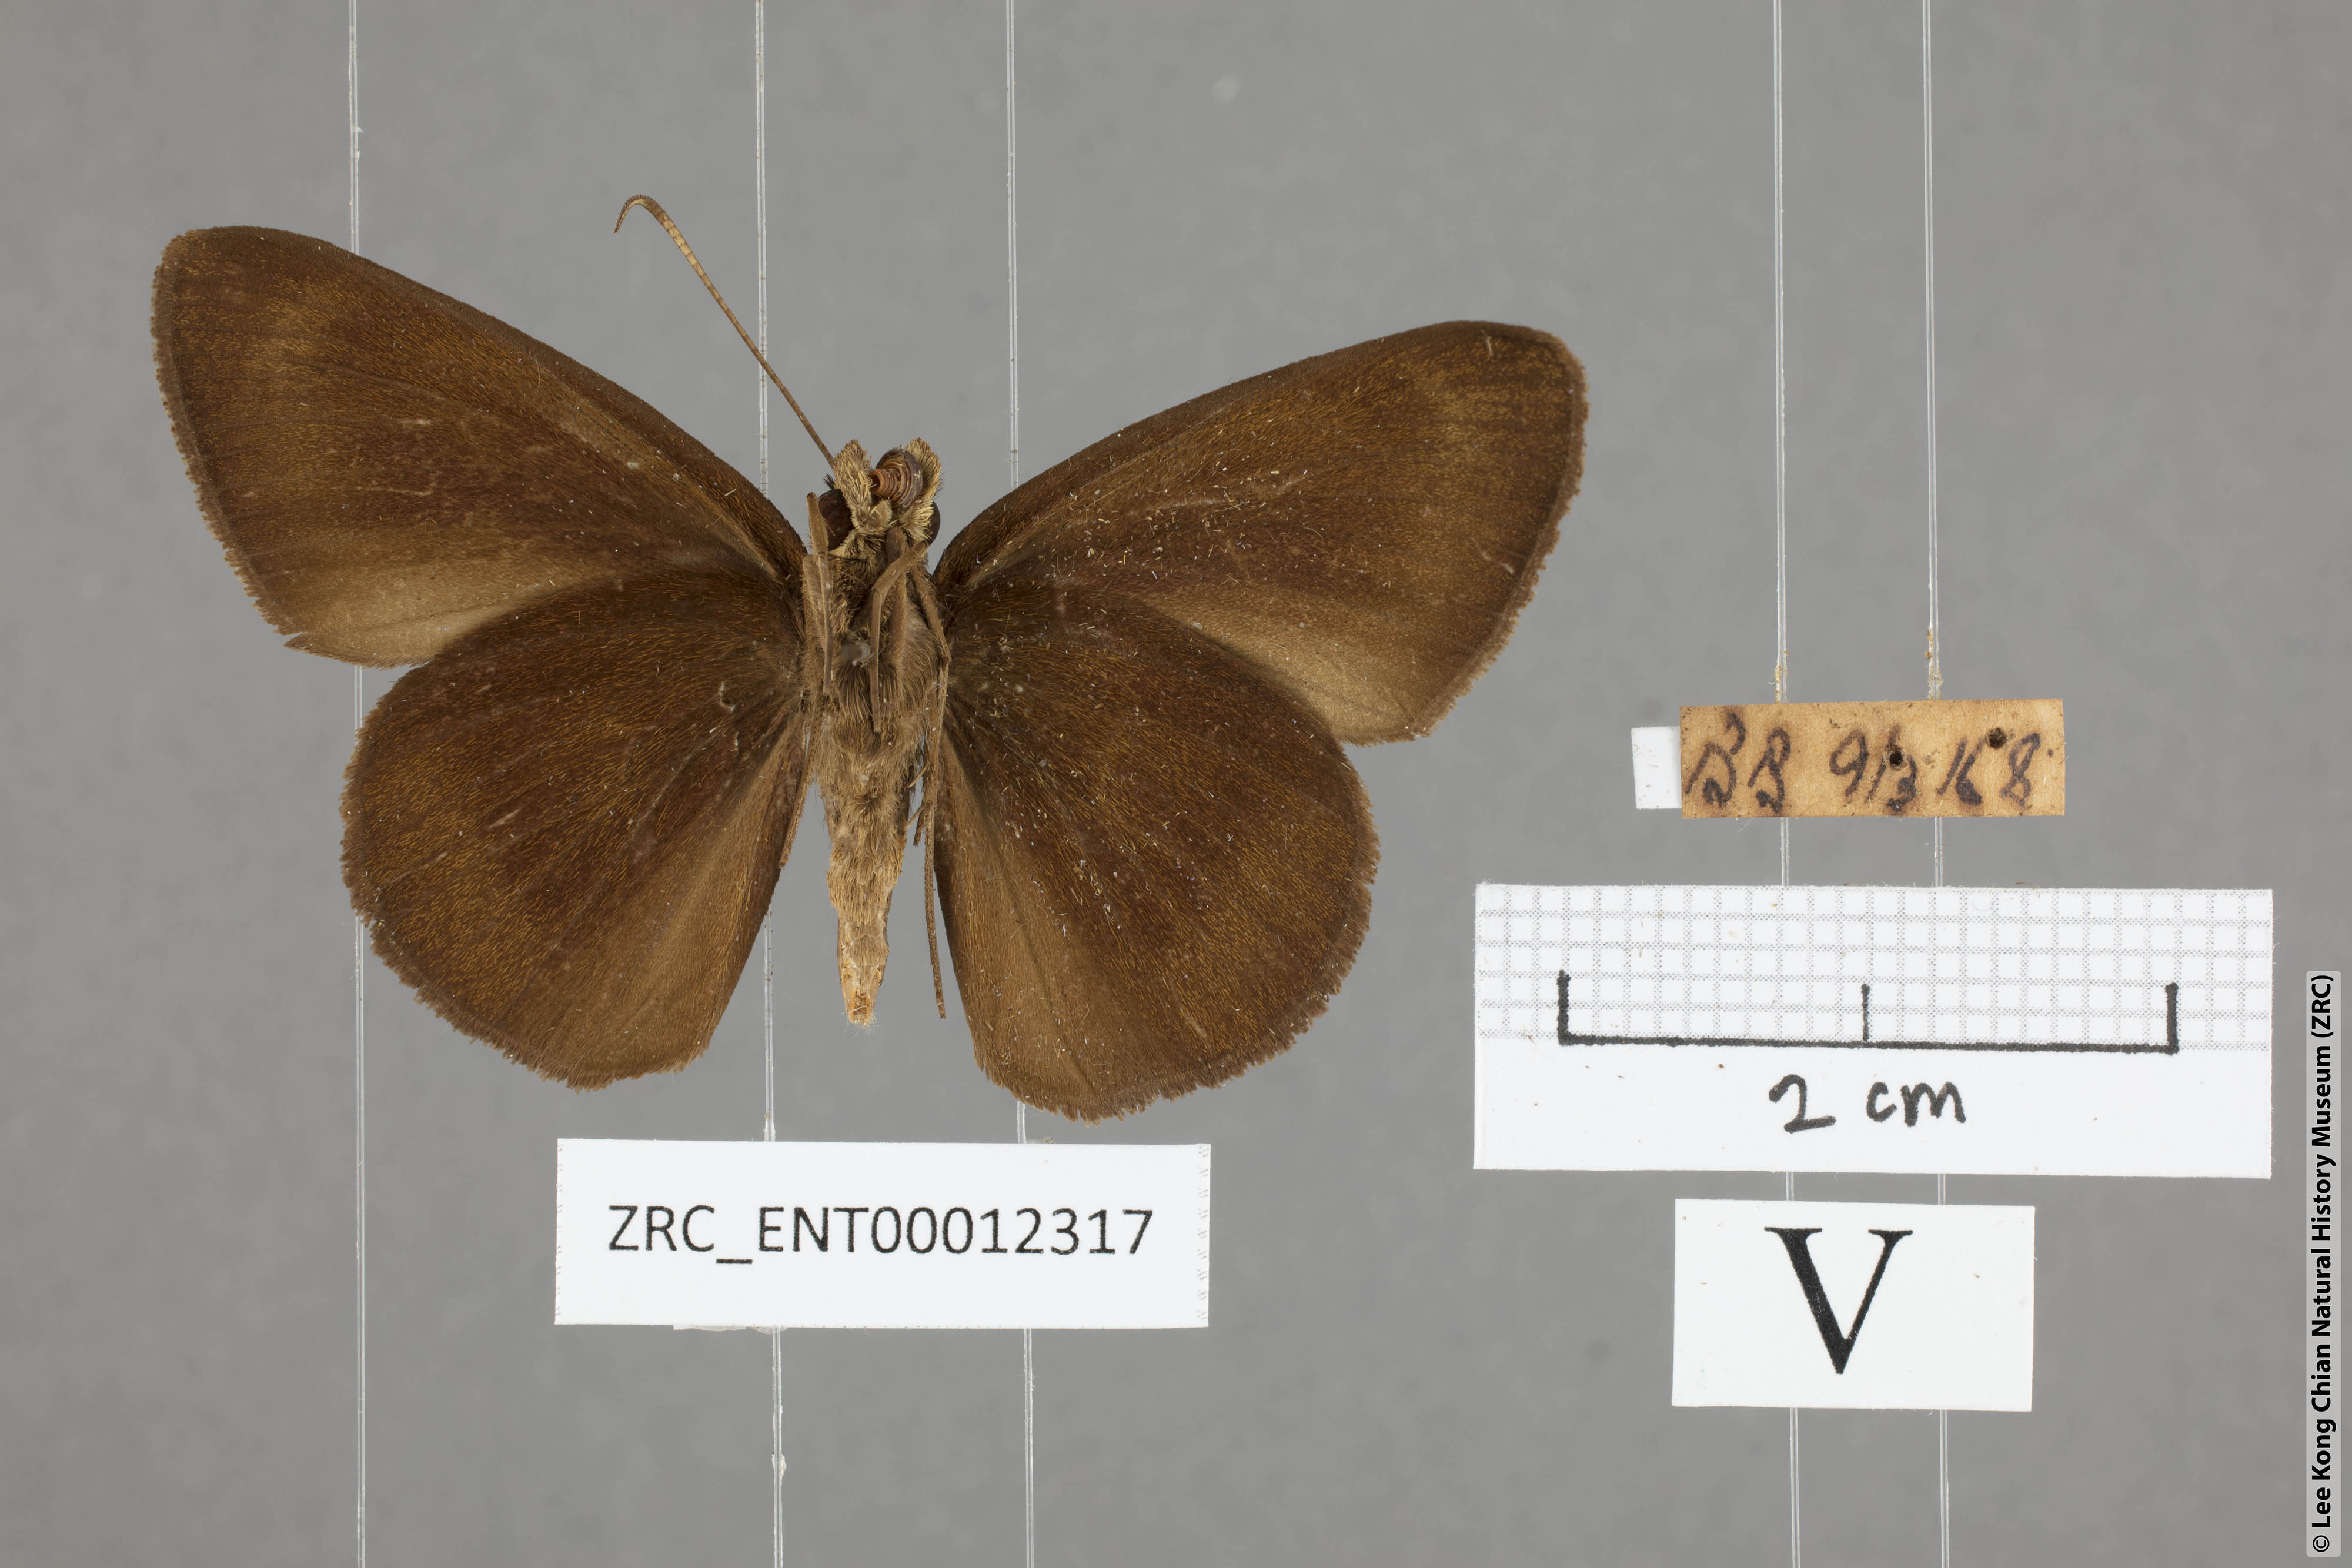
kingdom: Animalia
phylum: Arthropoda
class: Insecta
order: Lepidoptera
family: Hesperiidae
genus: Ancistroides
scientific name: Ancistroides nigrita
